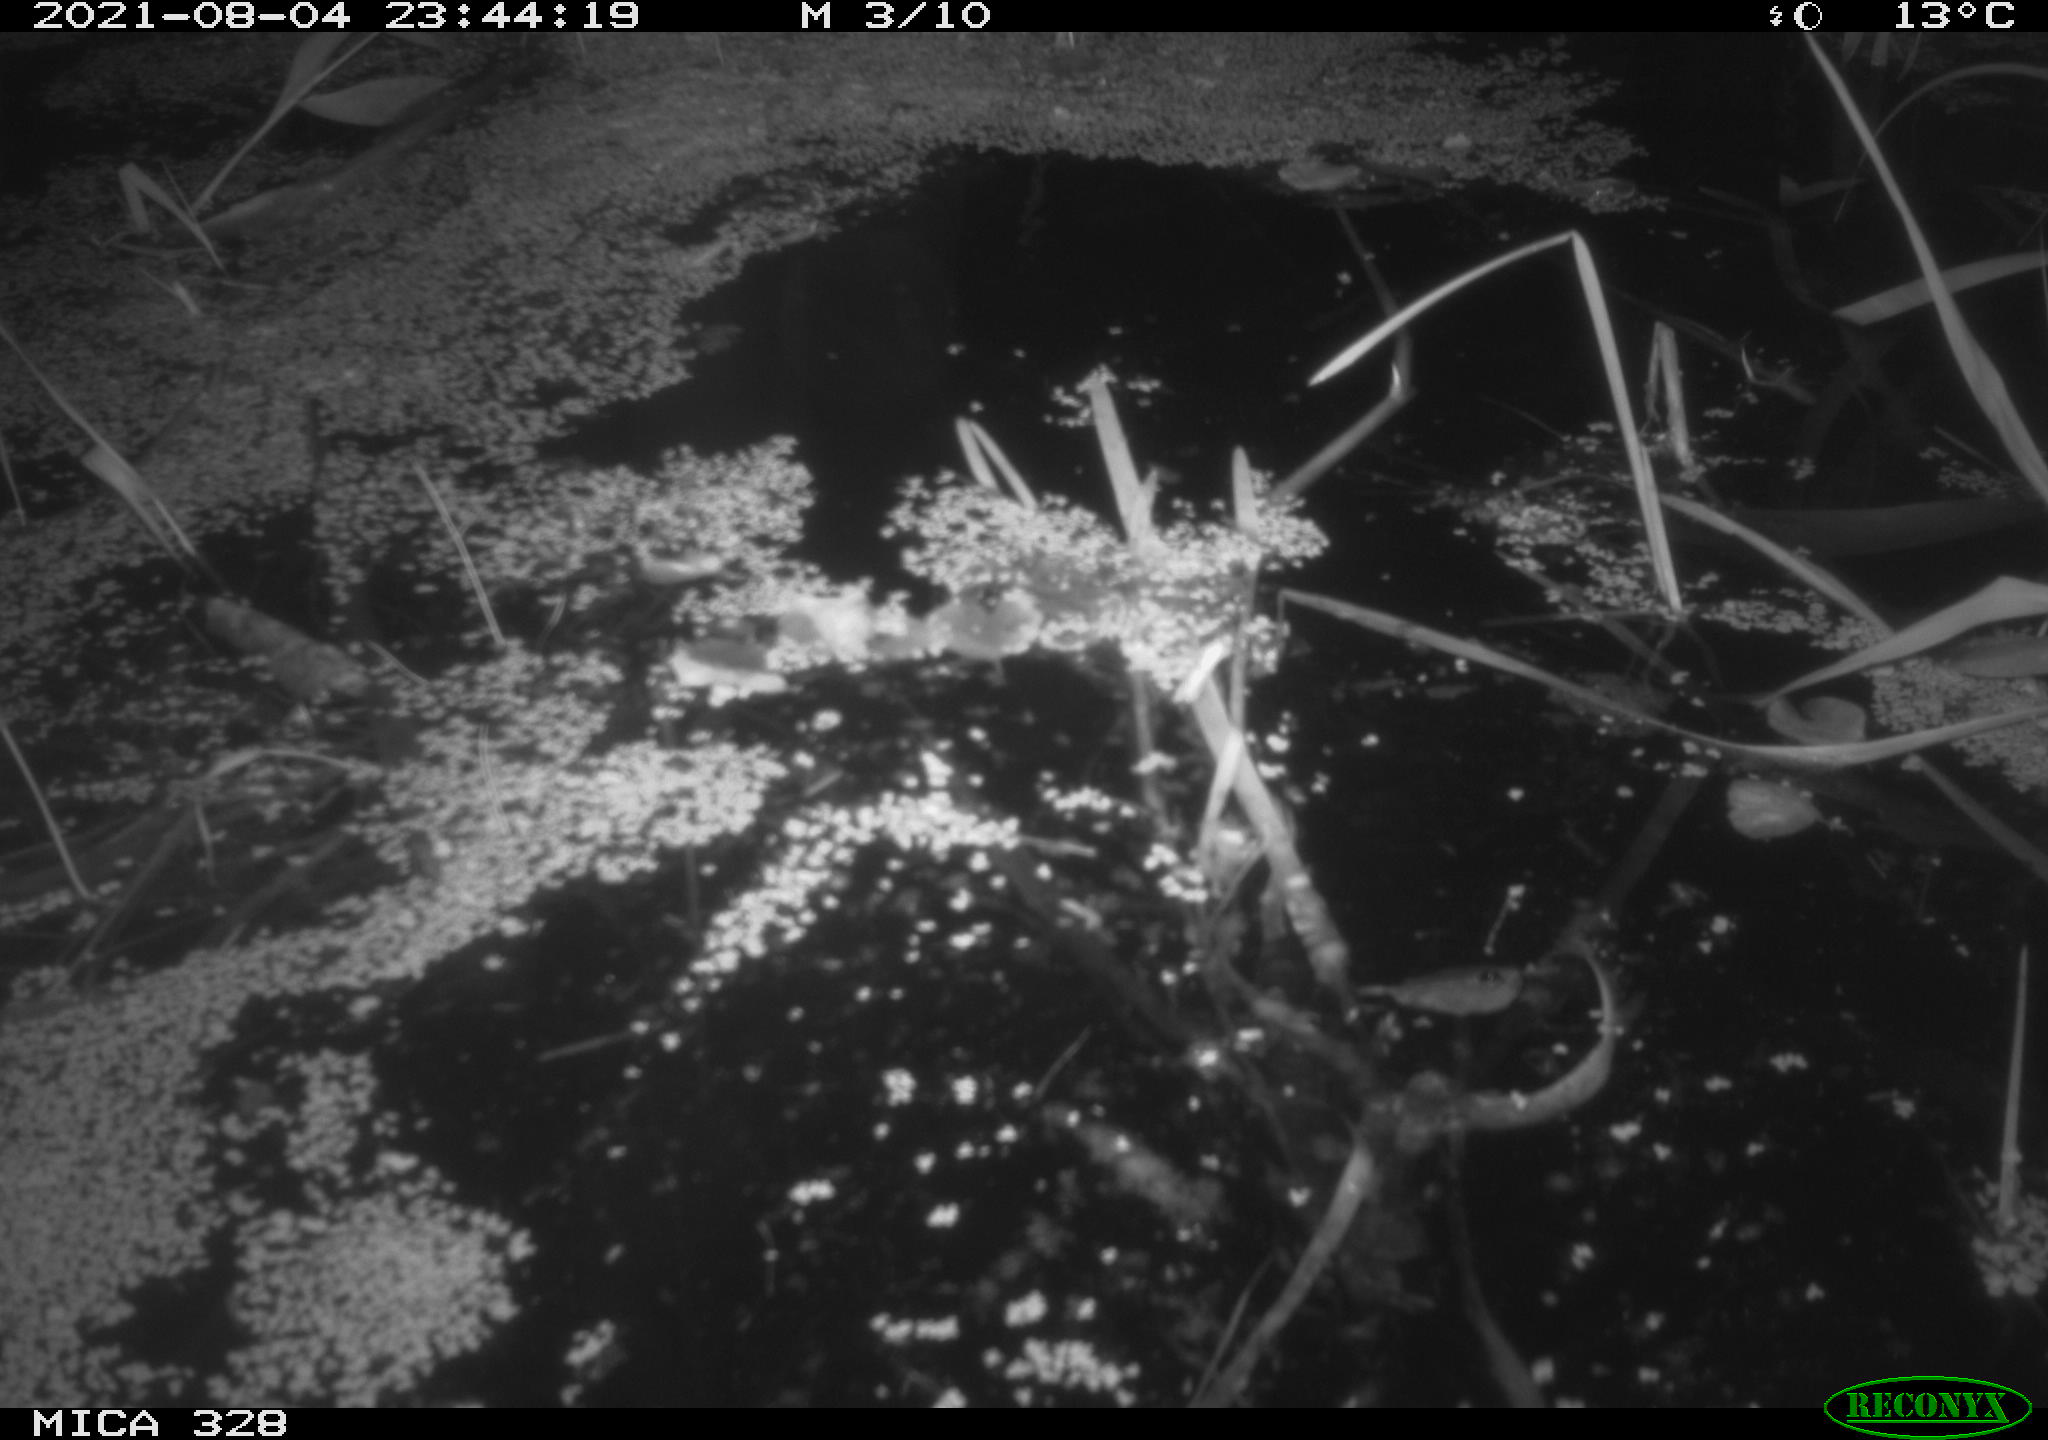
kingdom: Animalia
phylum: Chordata
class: Mammalia
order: Rodentia
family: Cricetidae
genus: Ondatra
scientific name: Ondatra zibethicus
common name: Muskrat
